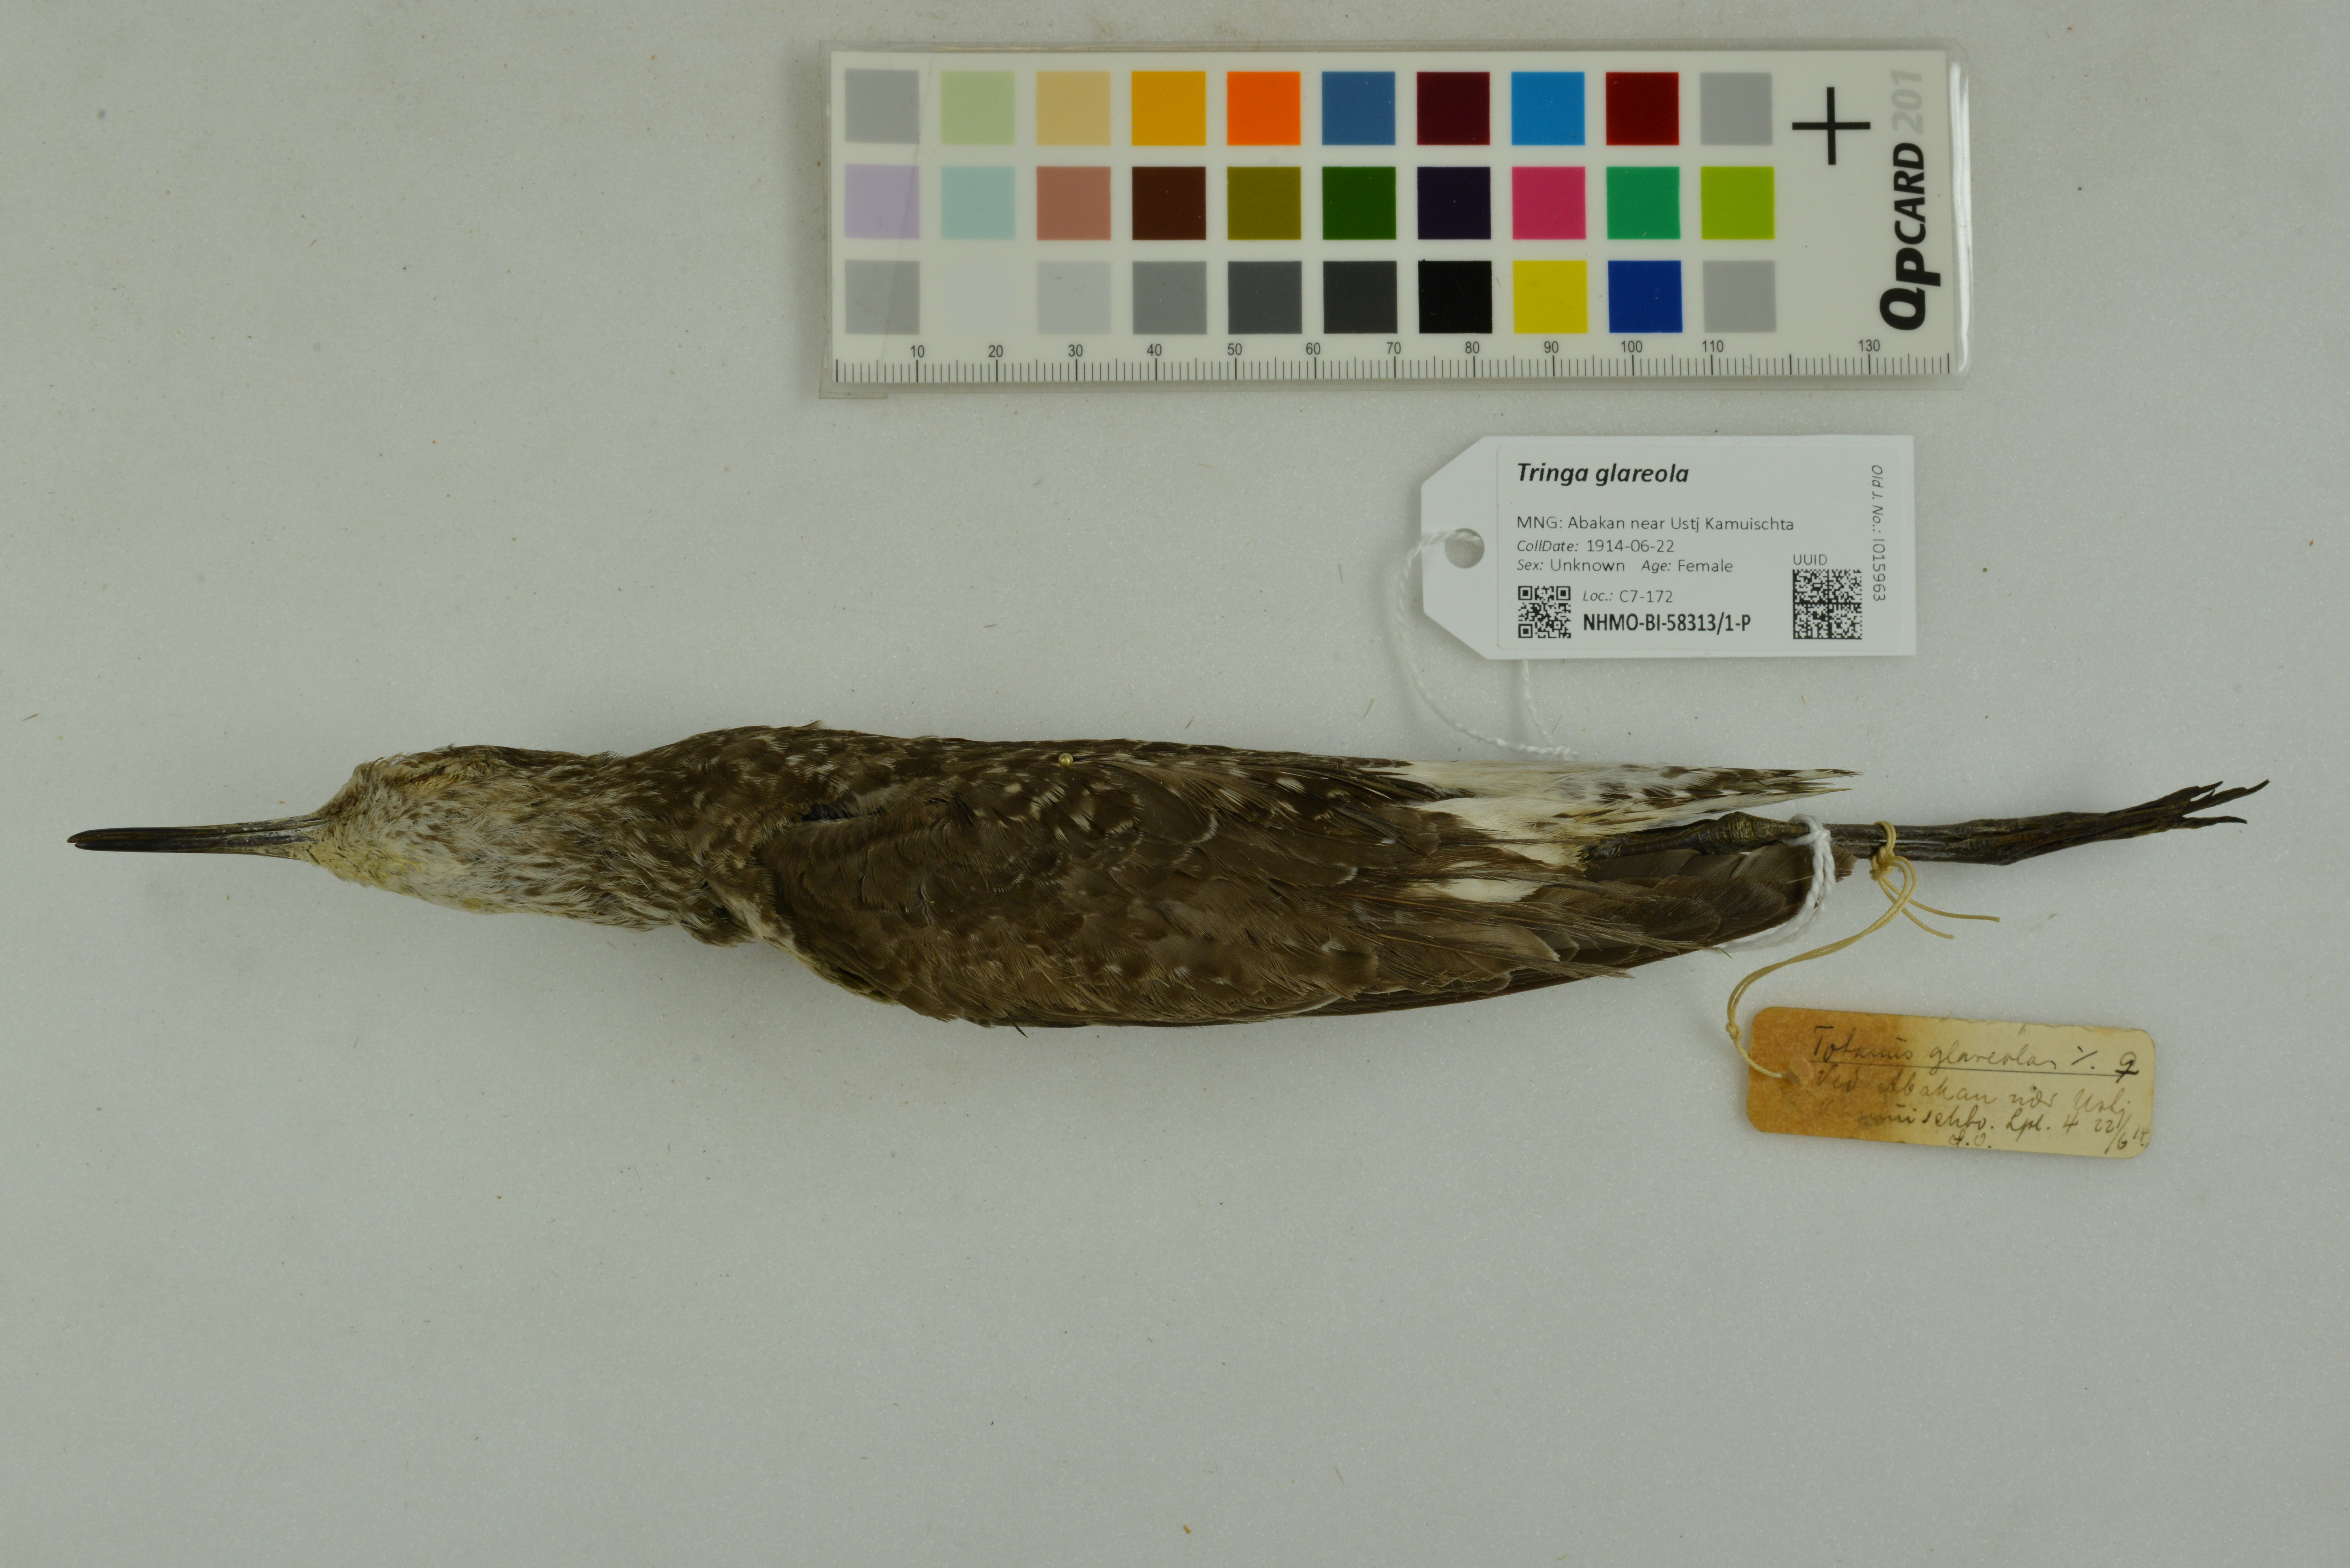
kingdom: Animalia
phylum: Chordata
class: Aves
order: Charadriiformes
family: Scolopacidae
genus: Tringa
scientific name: Tringa glareola
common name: Wood sandpiper
